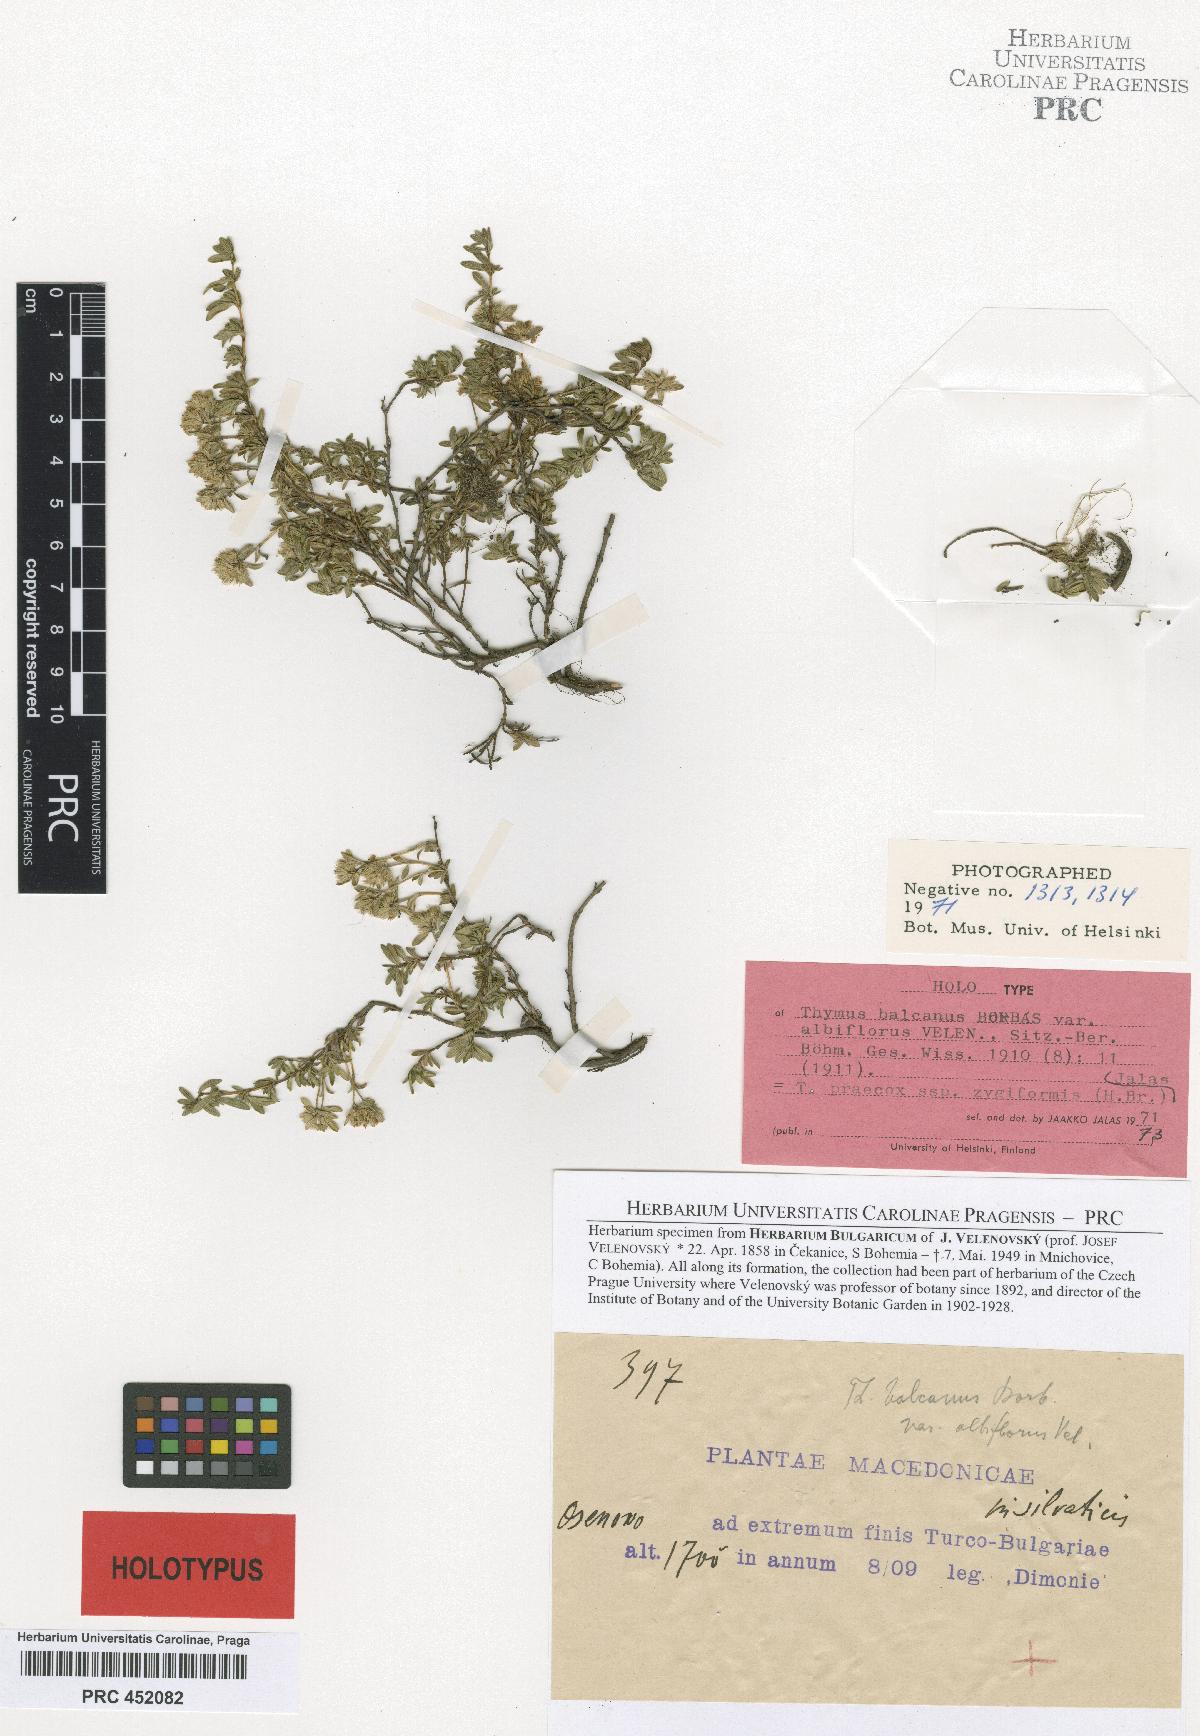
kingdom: Plantae
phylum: Tracheophyta
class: Magnoliopsida
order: Lamiales
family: Lamiaceae
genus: Thymus
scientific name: Thymus praecox
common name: Wild thyme
